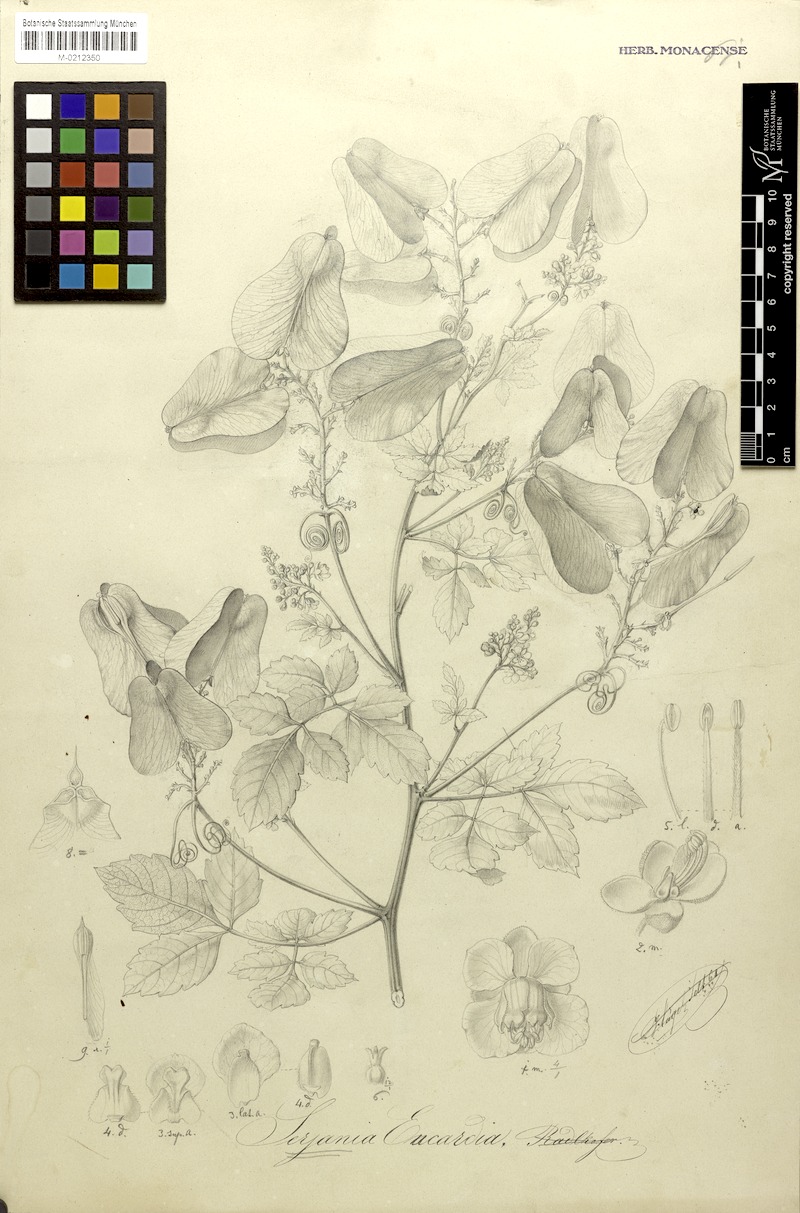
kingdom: Plantae
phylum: Tracheophyta
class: Magnoliopsida
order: Sapindales
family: Sapindaceae
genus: Serjania
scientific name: Serjania eucardia
